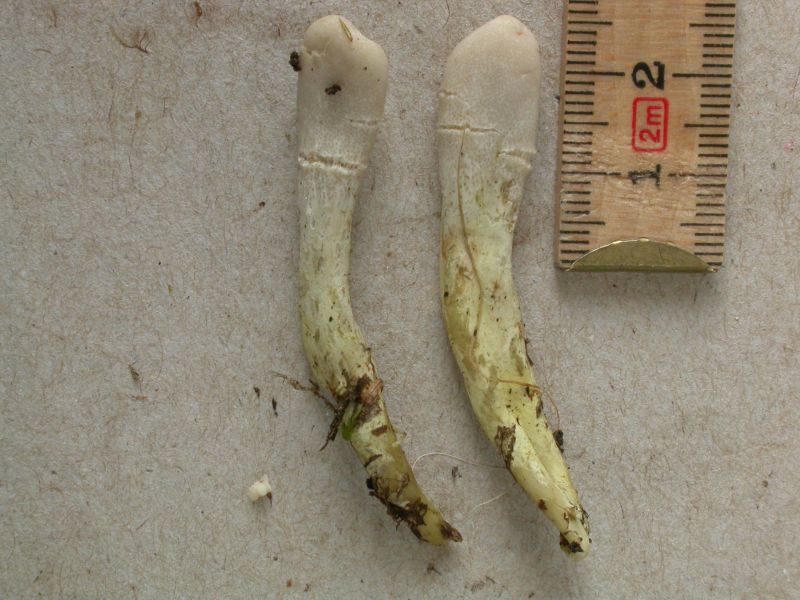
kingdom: Fungi
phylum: Ascomycota
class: Sordariomycetes
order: Hypocreales
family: Ophiocordycipitaceae
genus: Tolypocladium
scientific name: Tolypocladium ophioglossoides
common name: Snaketongue truffleclub
